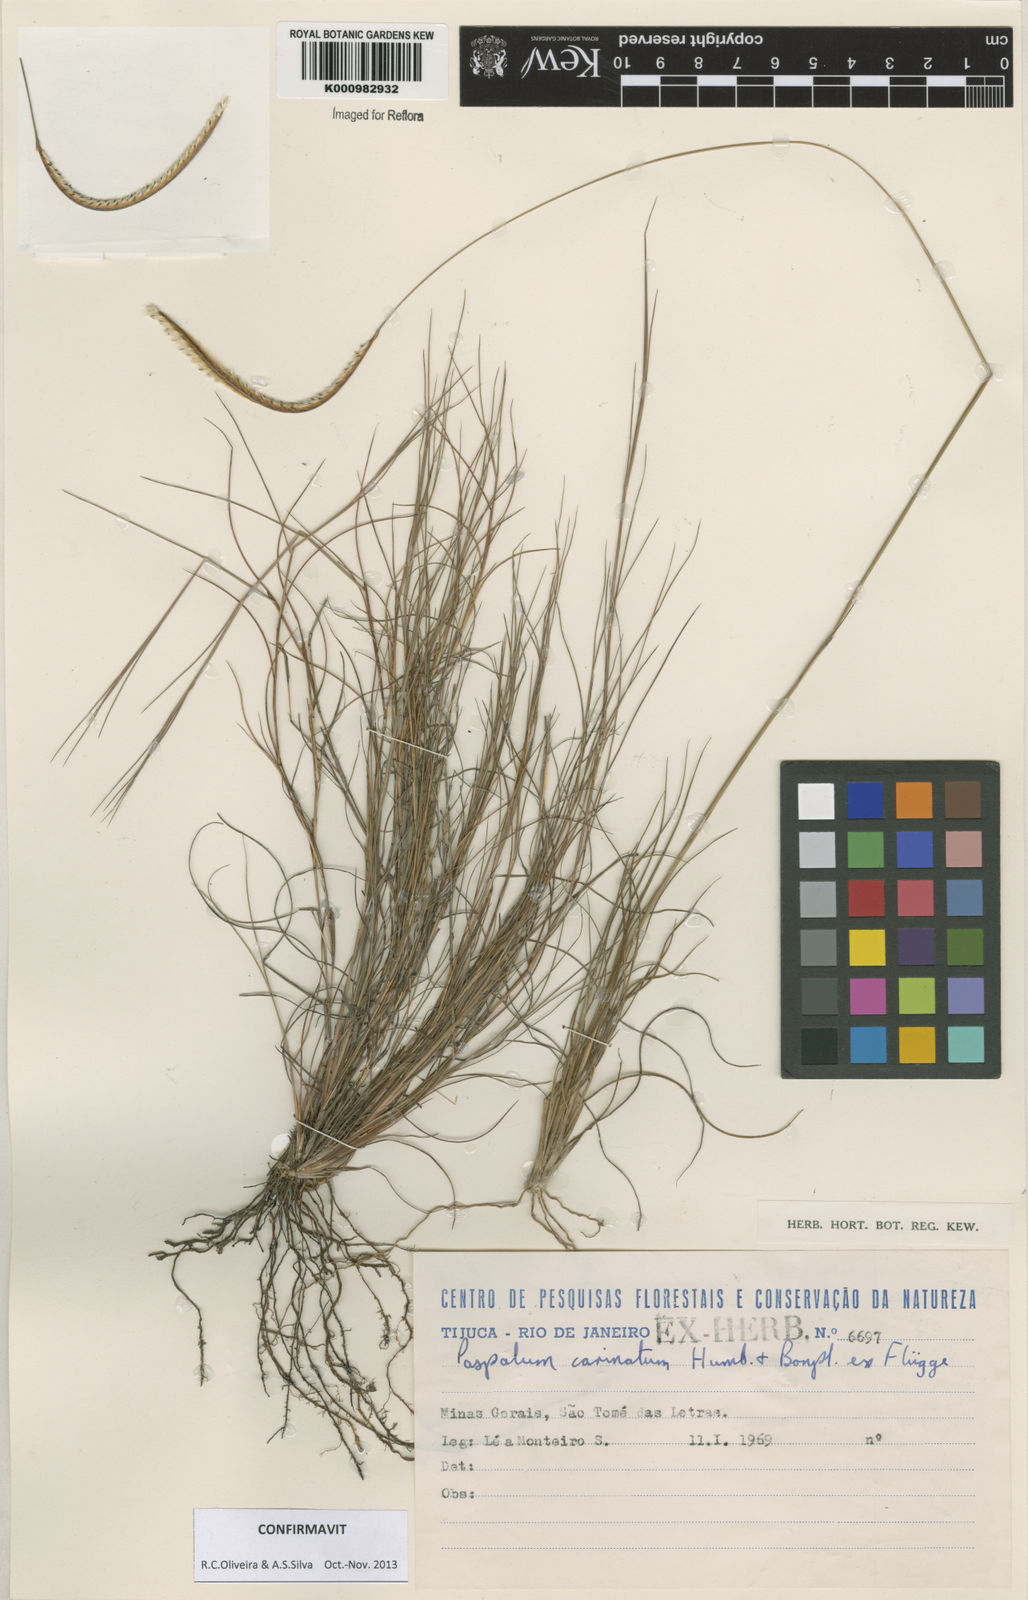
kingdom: Plantae
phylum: Tracheophyta
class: Liliopsida
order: Poales
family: Poaceae
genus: Paspalum
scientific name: Paspalum
